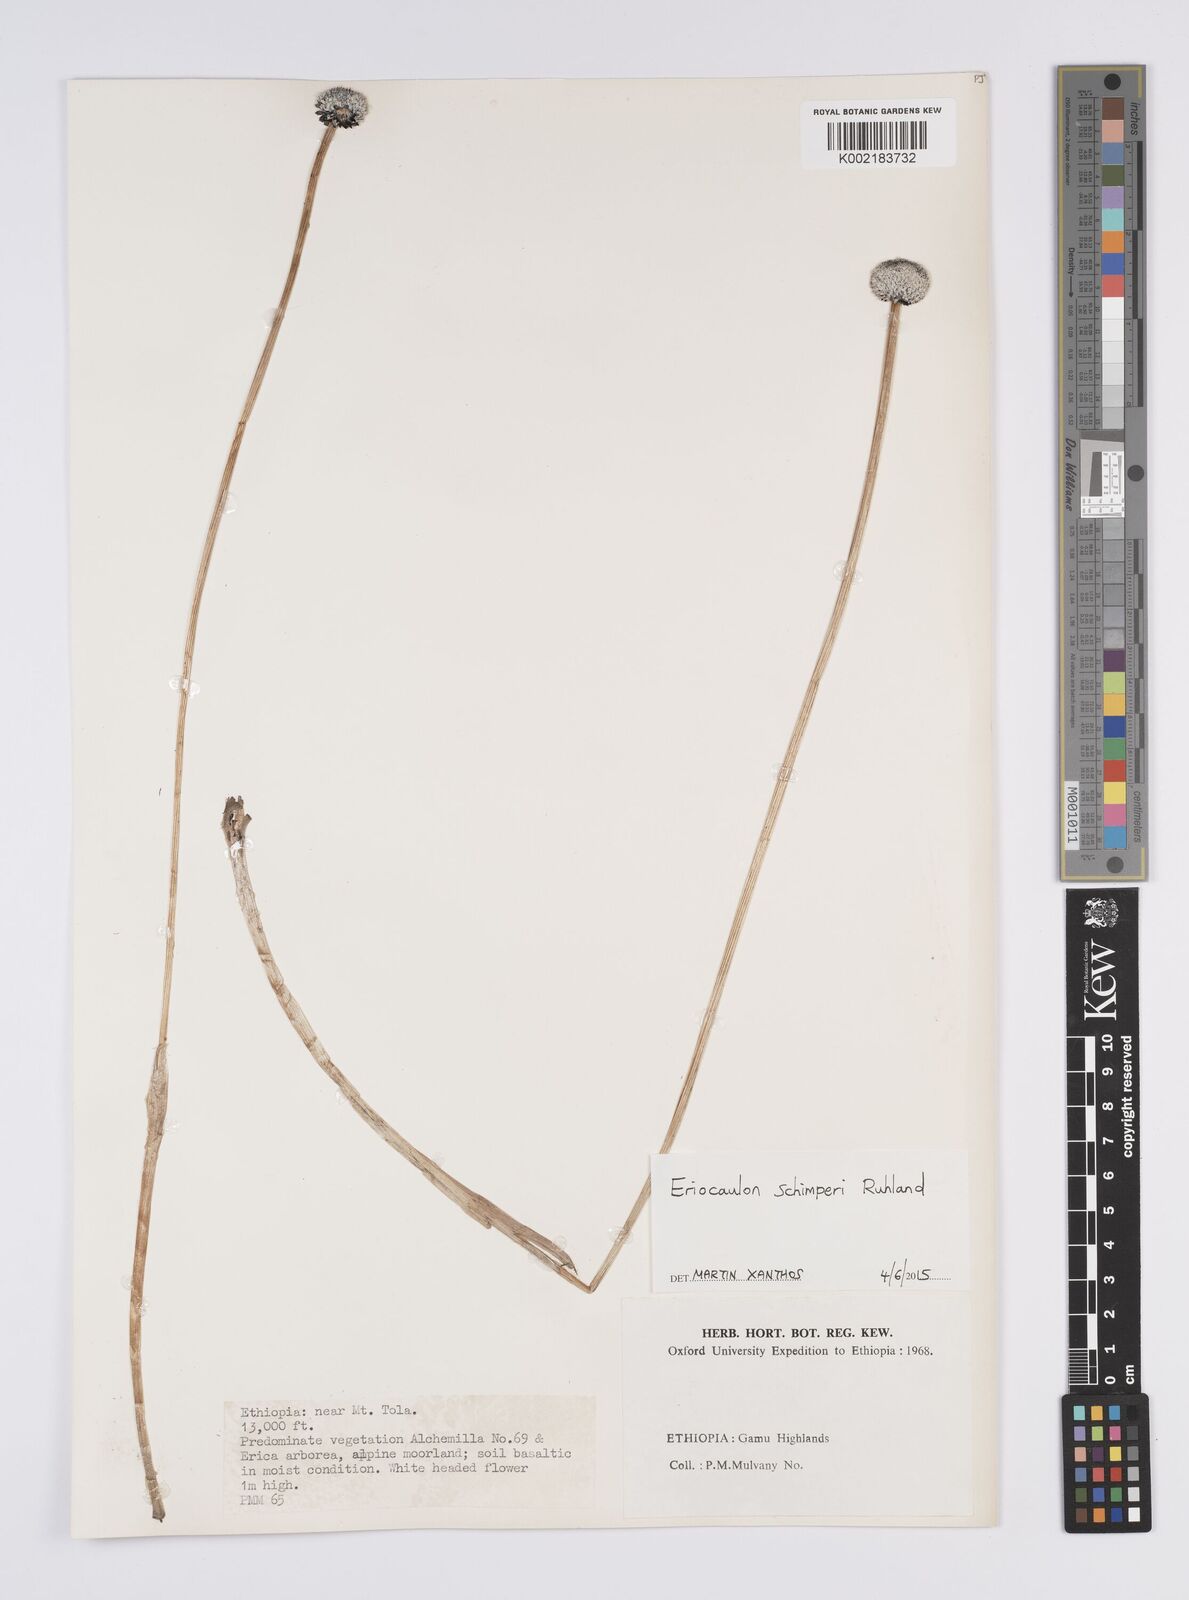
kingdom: Plantae
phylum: Tracheophyta
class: Liliopsida
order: Poales
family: Eriocaulaceae
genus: Eriocaulon
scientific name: Eriocaulon schimperi
